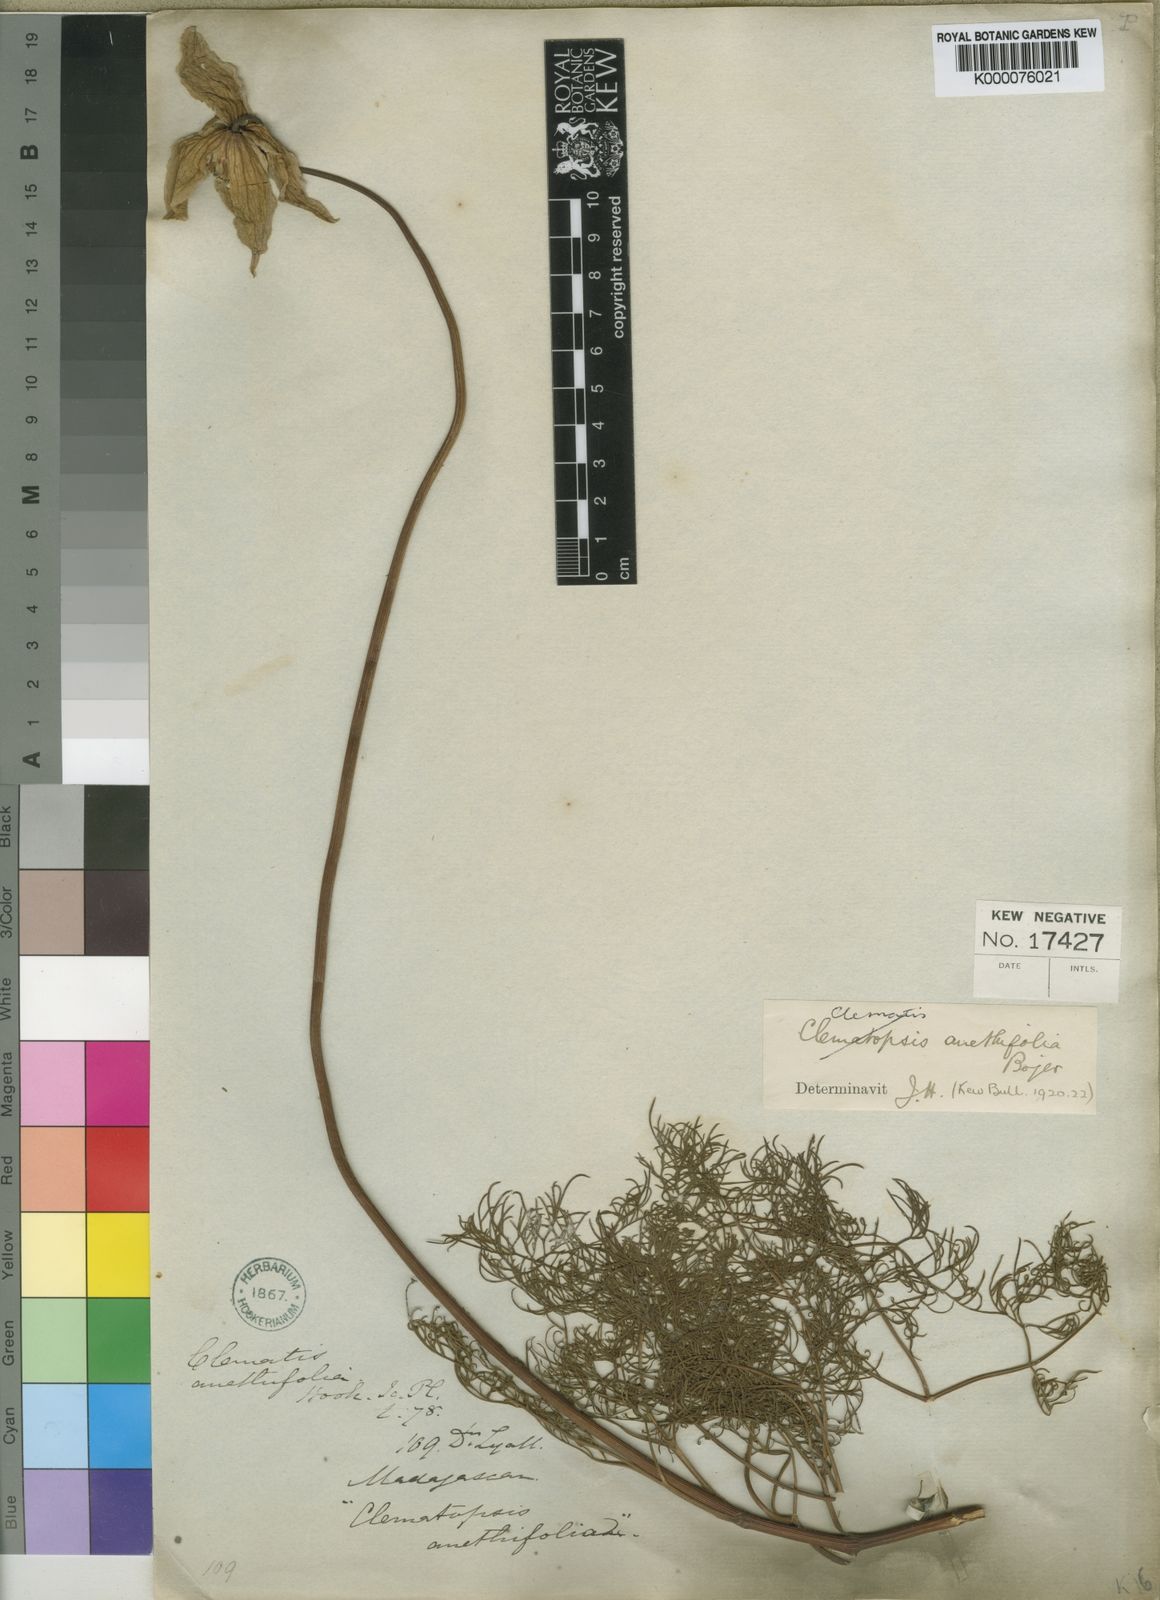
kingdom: Plantae
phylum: Tracheophyta
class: Magnoliopsida
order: Ranunculales
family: Ranunculaceae
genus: Clematis
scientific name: Clematis
